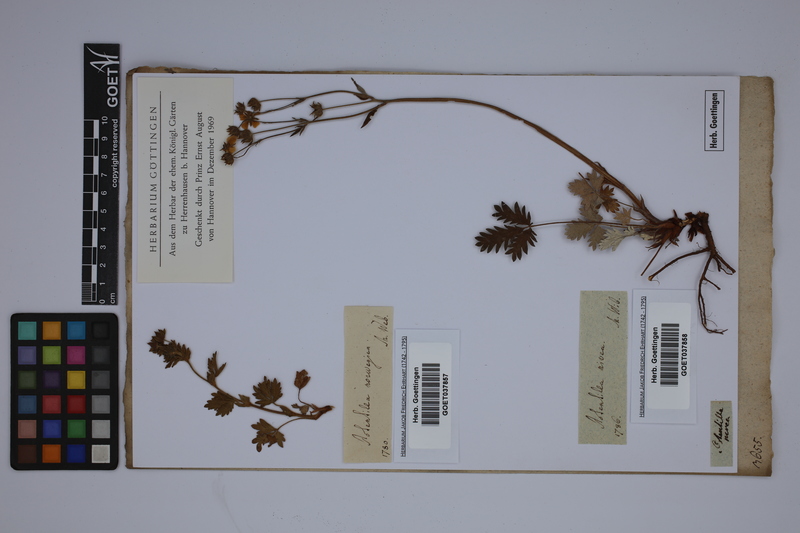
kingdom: Plantae
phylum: Tracheophyta
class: Magnoliopsida
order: Rosales
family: Rosaceae
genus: Potentilla
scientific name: Potentilla norvegica
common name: Ternate-leaved cinquefoil
